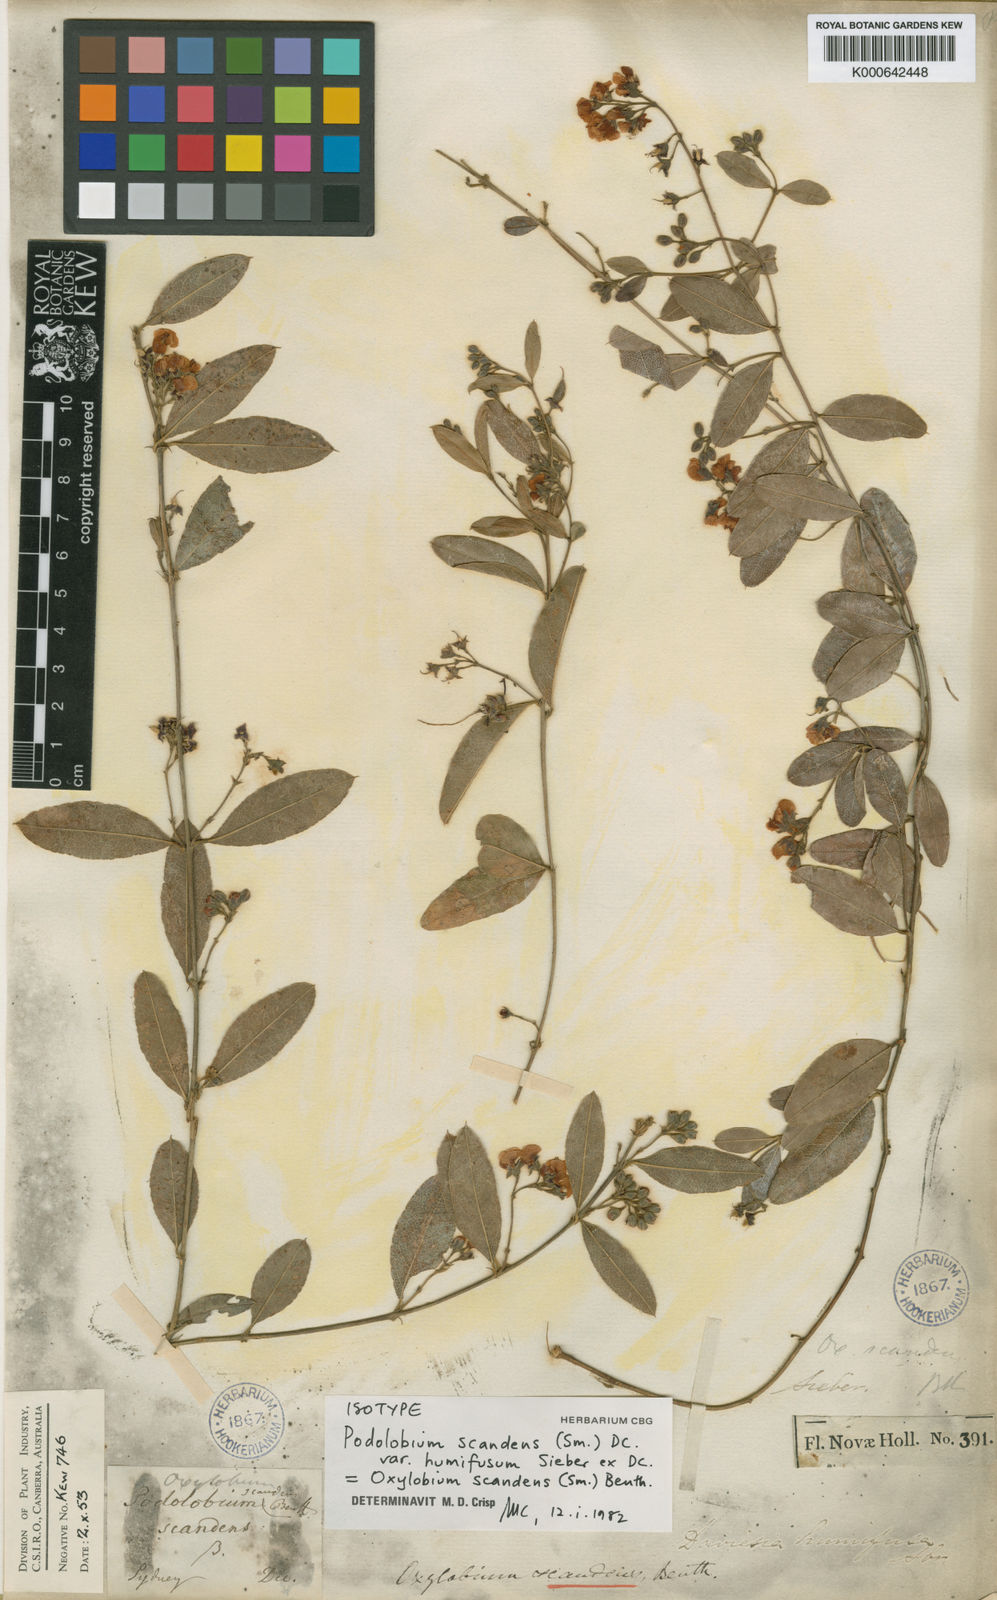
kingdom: Plantae
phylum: Tracheophyta
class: Magnoliopsida
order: Fabales
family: Fabaceae
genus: Podolobium
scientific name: Podolobium scandens
